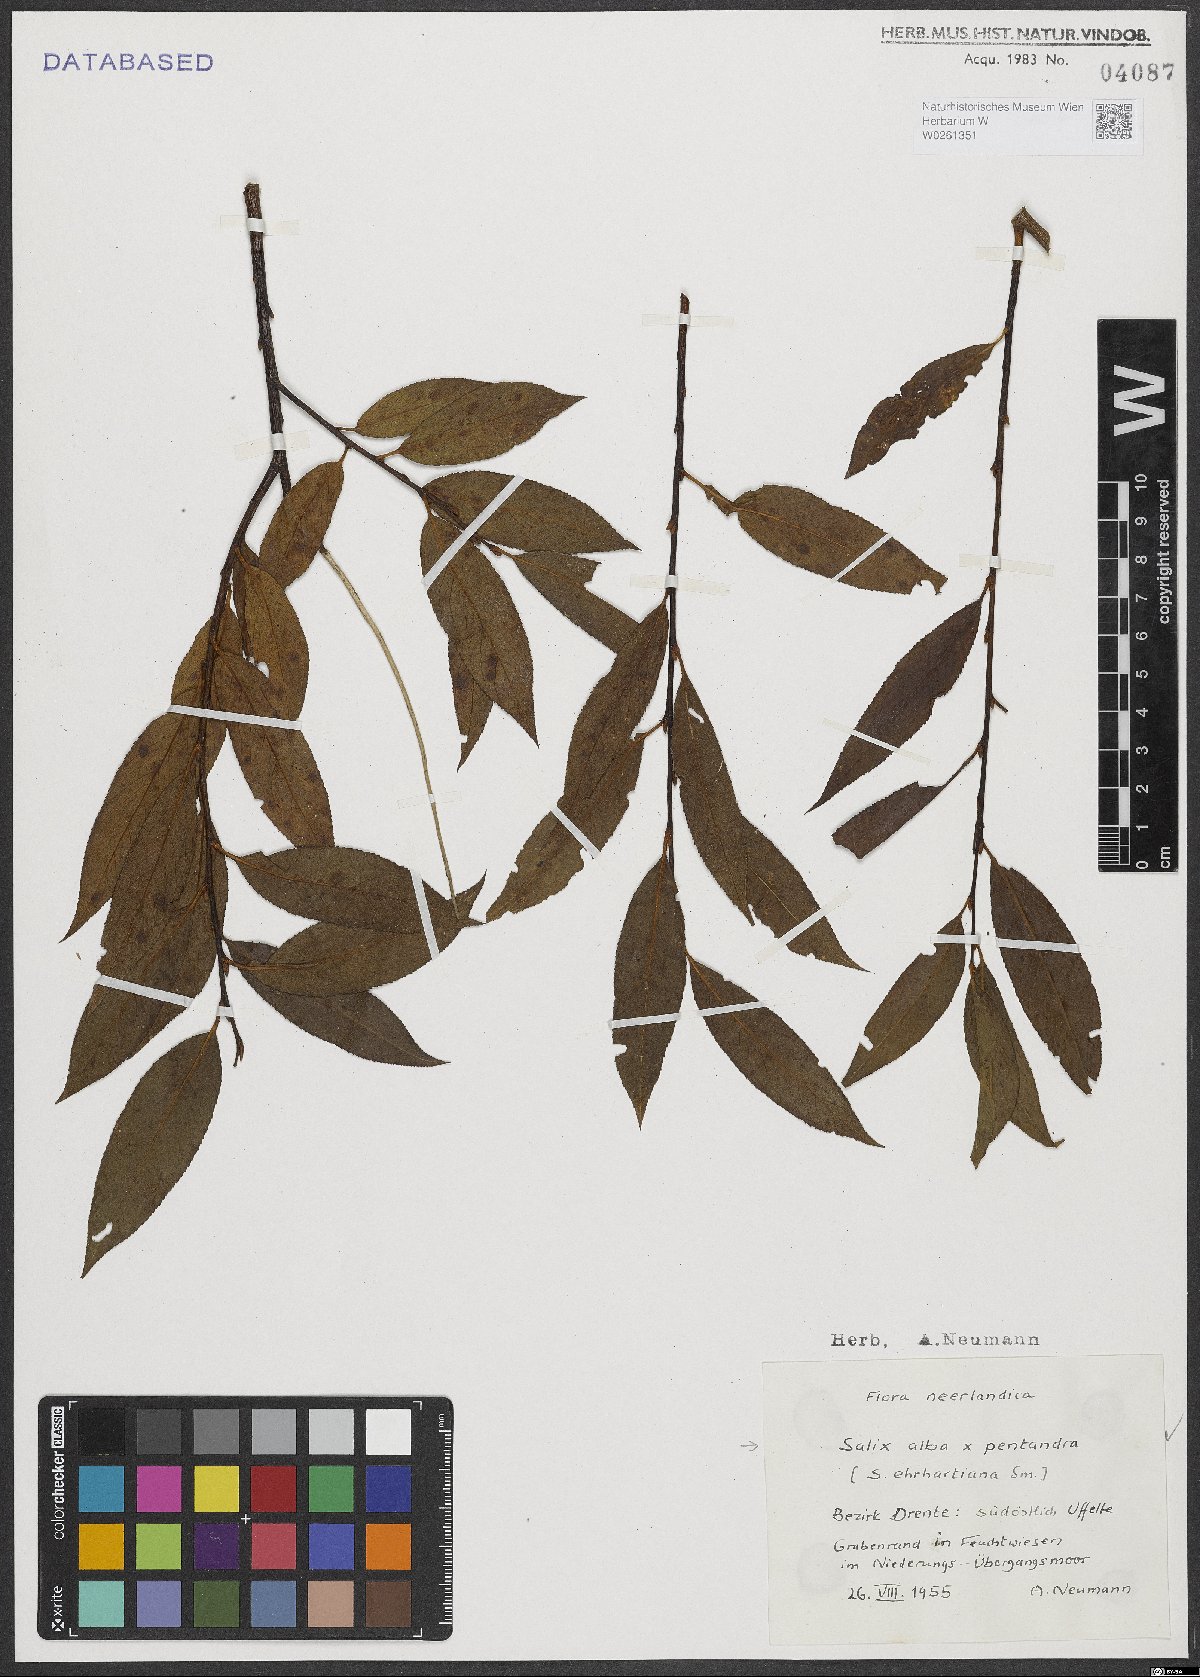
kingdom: Plantae
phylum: Tracheophyta
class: Magnoliopsida
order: Malpighiales
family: Salicaceae
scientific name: Salicaceae
